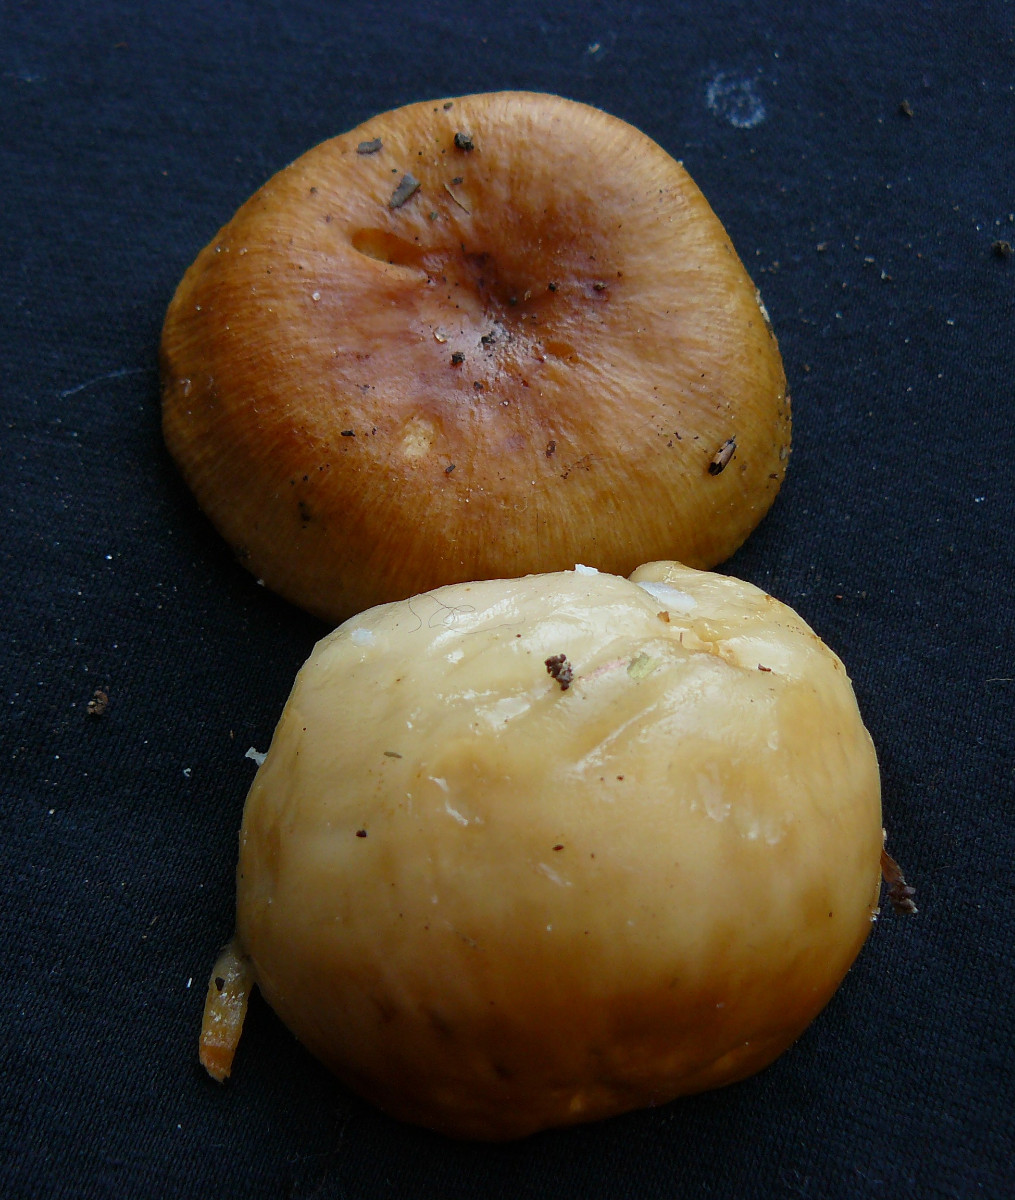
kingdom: Fungi
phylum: Basidiomycota
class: Agaricomycetes
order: Russulales
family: Russulaceae
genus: Russula
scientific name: Russula foetens
